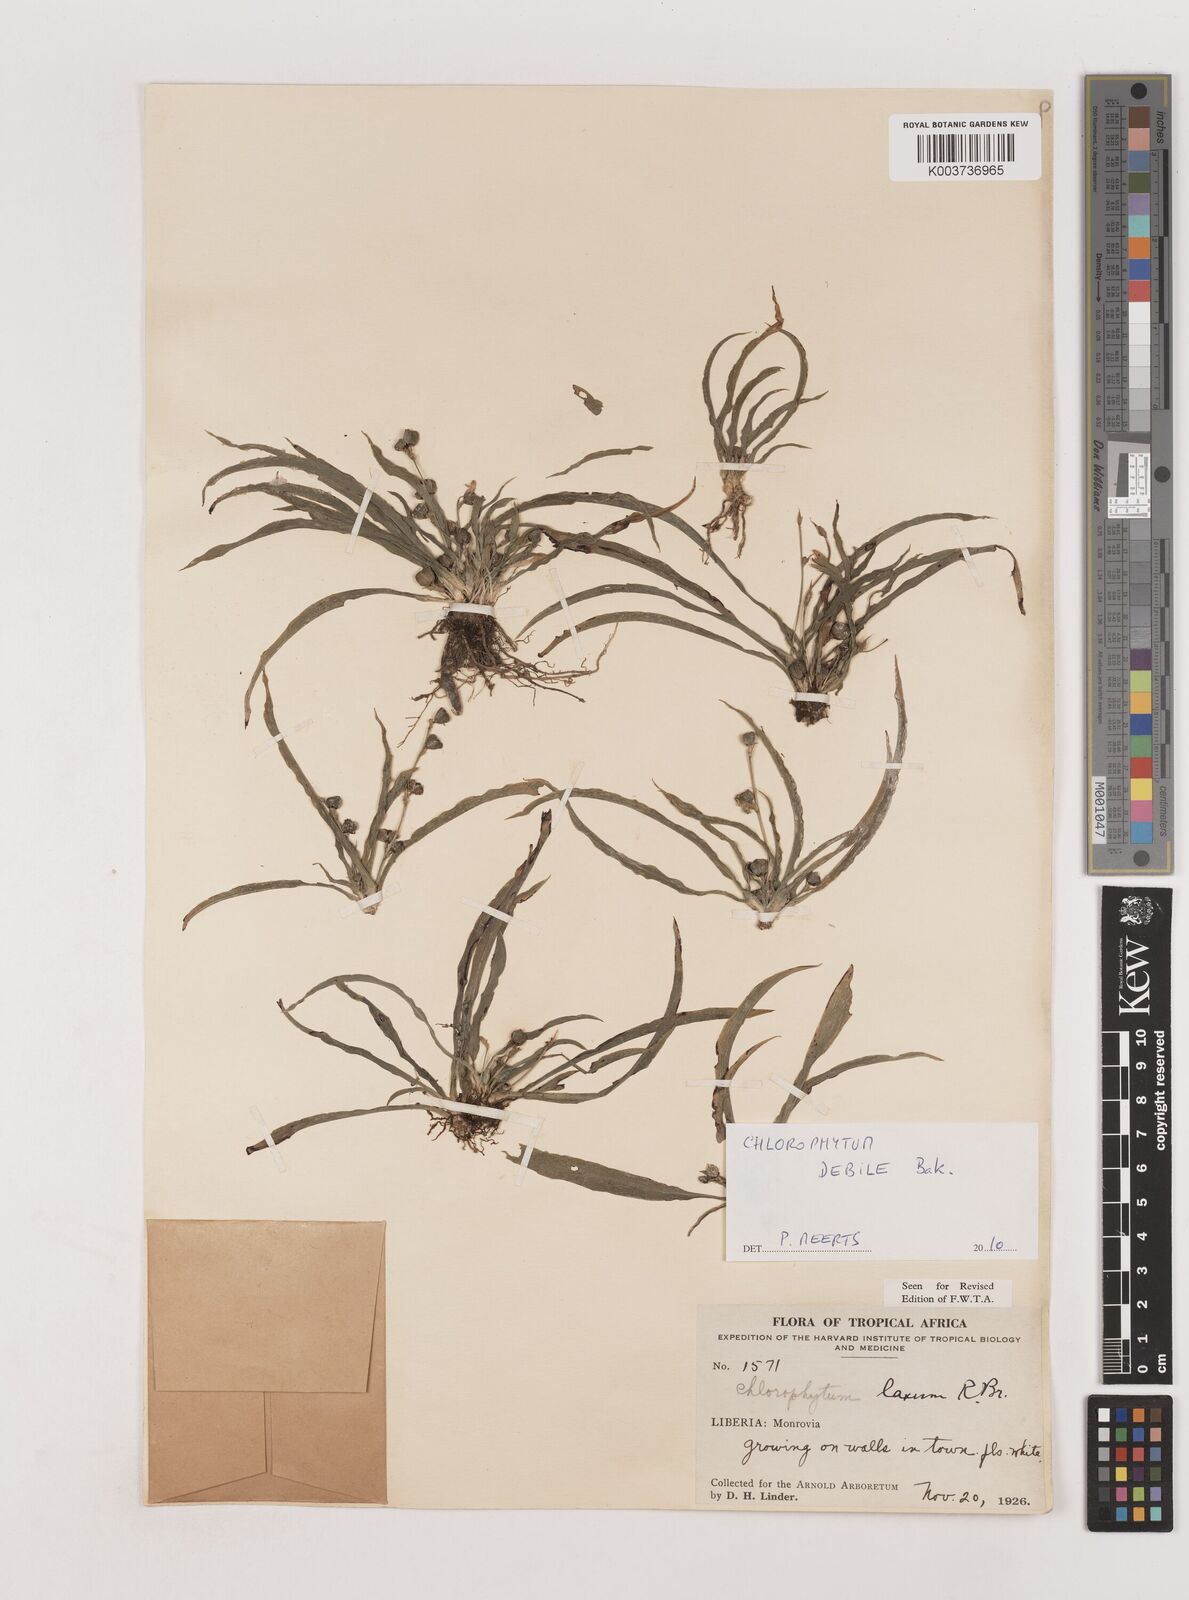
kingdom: Plantae
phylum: Tracheophyta
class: Liliopsida
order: Asparagales
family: Asparagaceae
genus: Chlorophytum
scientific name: Chlorophytum laxum
